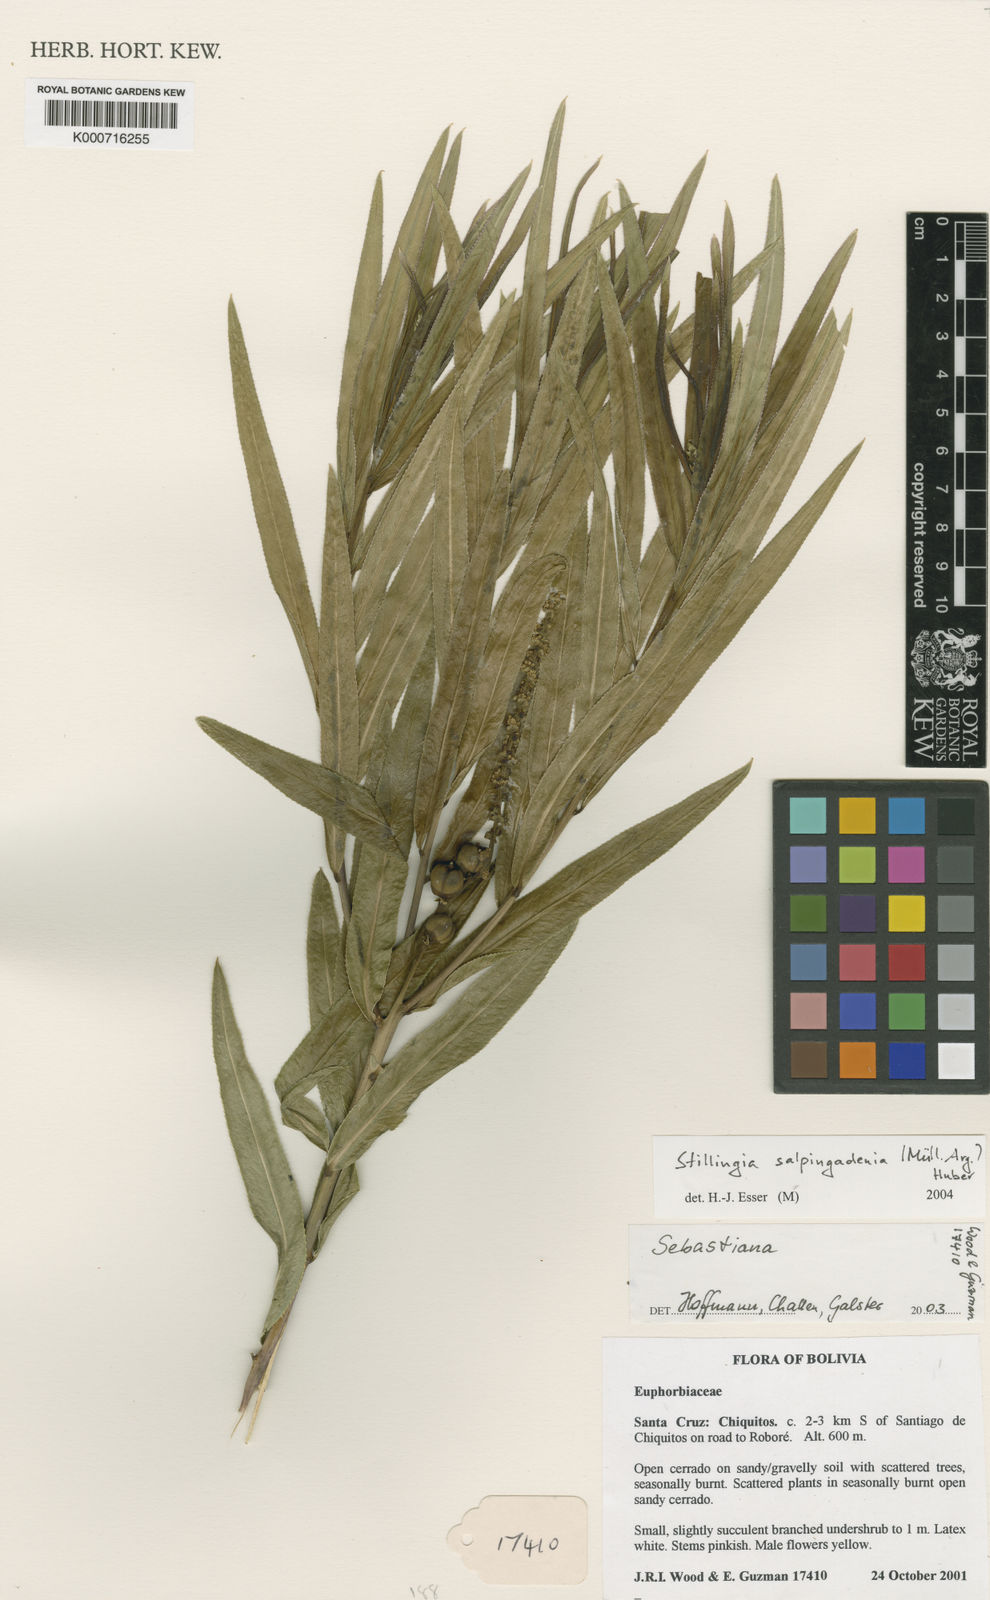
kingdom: Plantae
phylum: Tracheophyta
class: Magnoliopsida
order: Malpighiales
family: Euphorbiaceae
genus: Stillingia
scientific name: Stillingia
